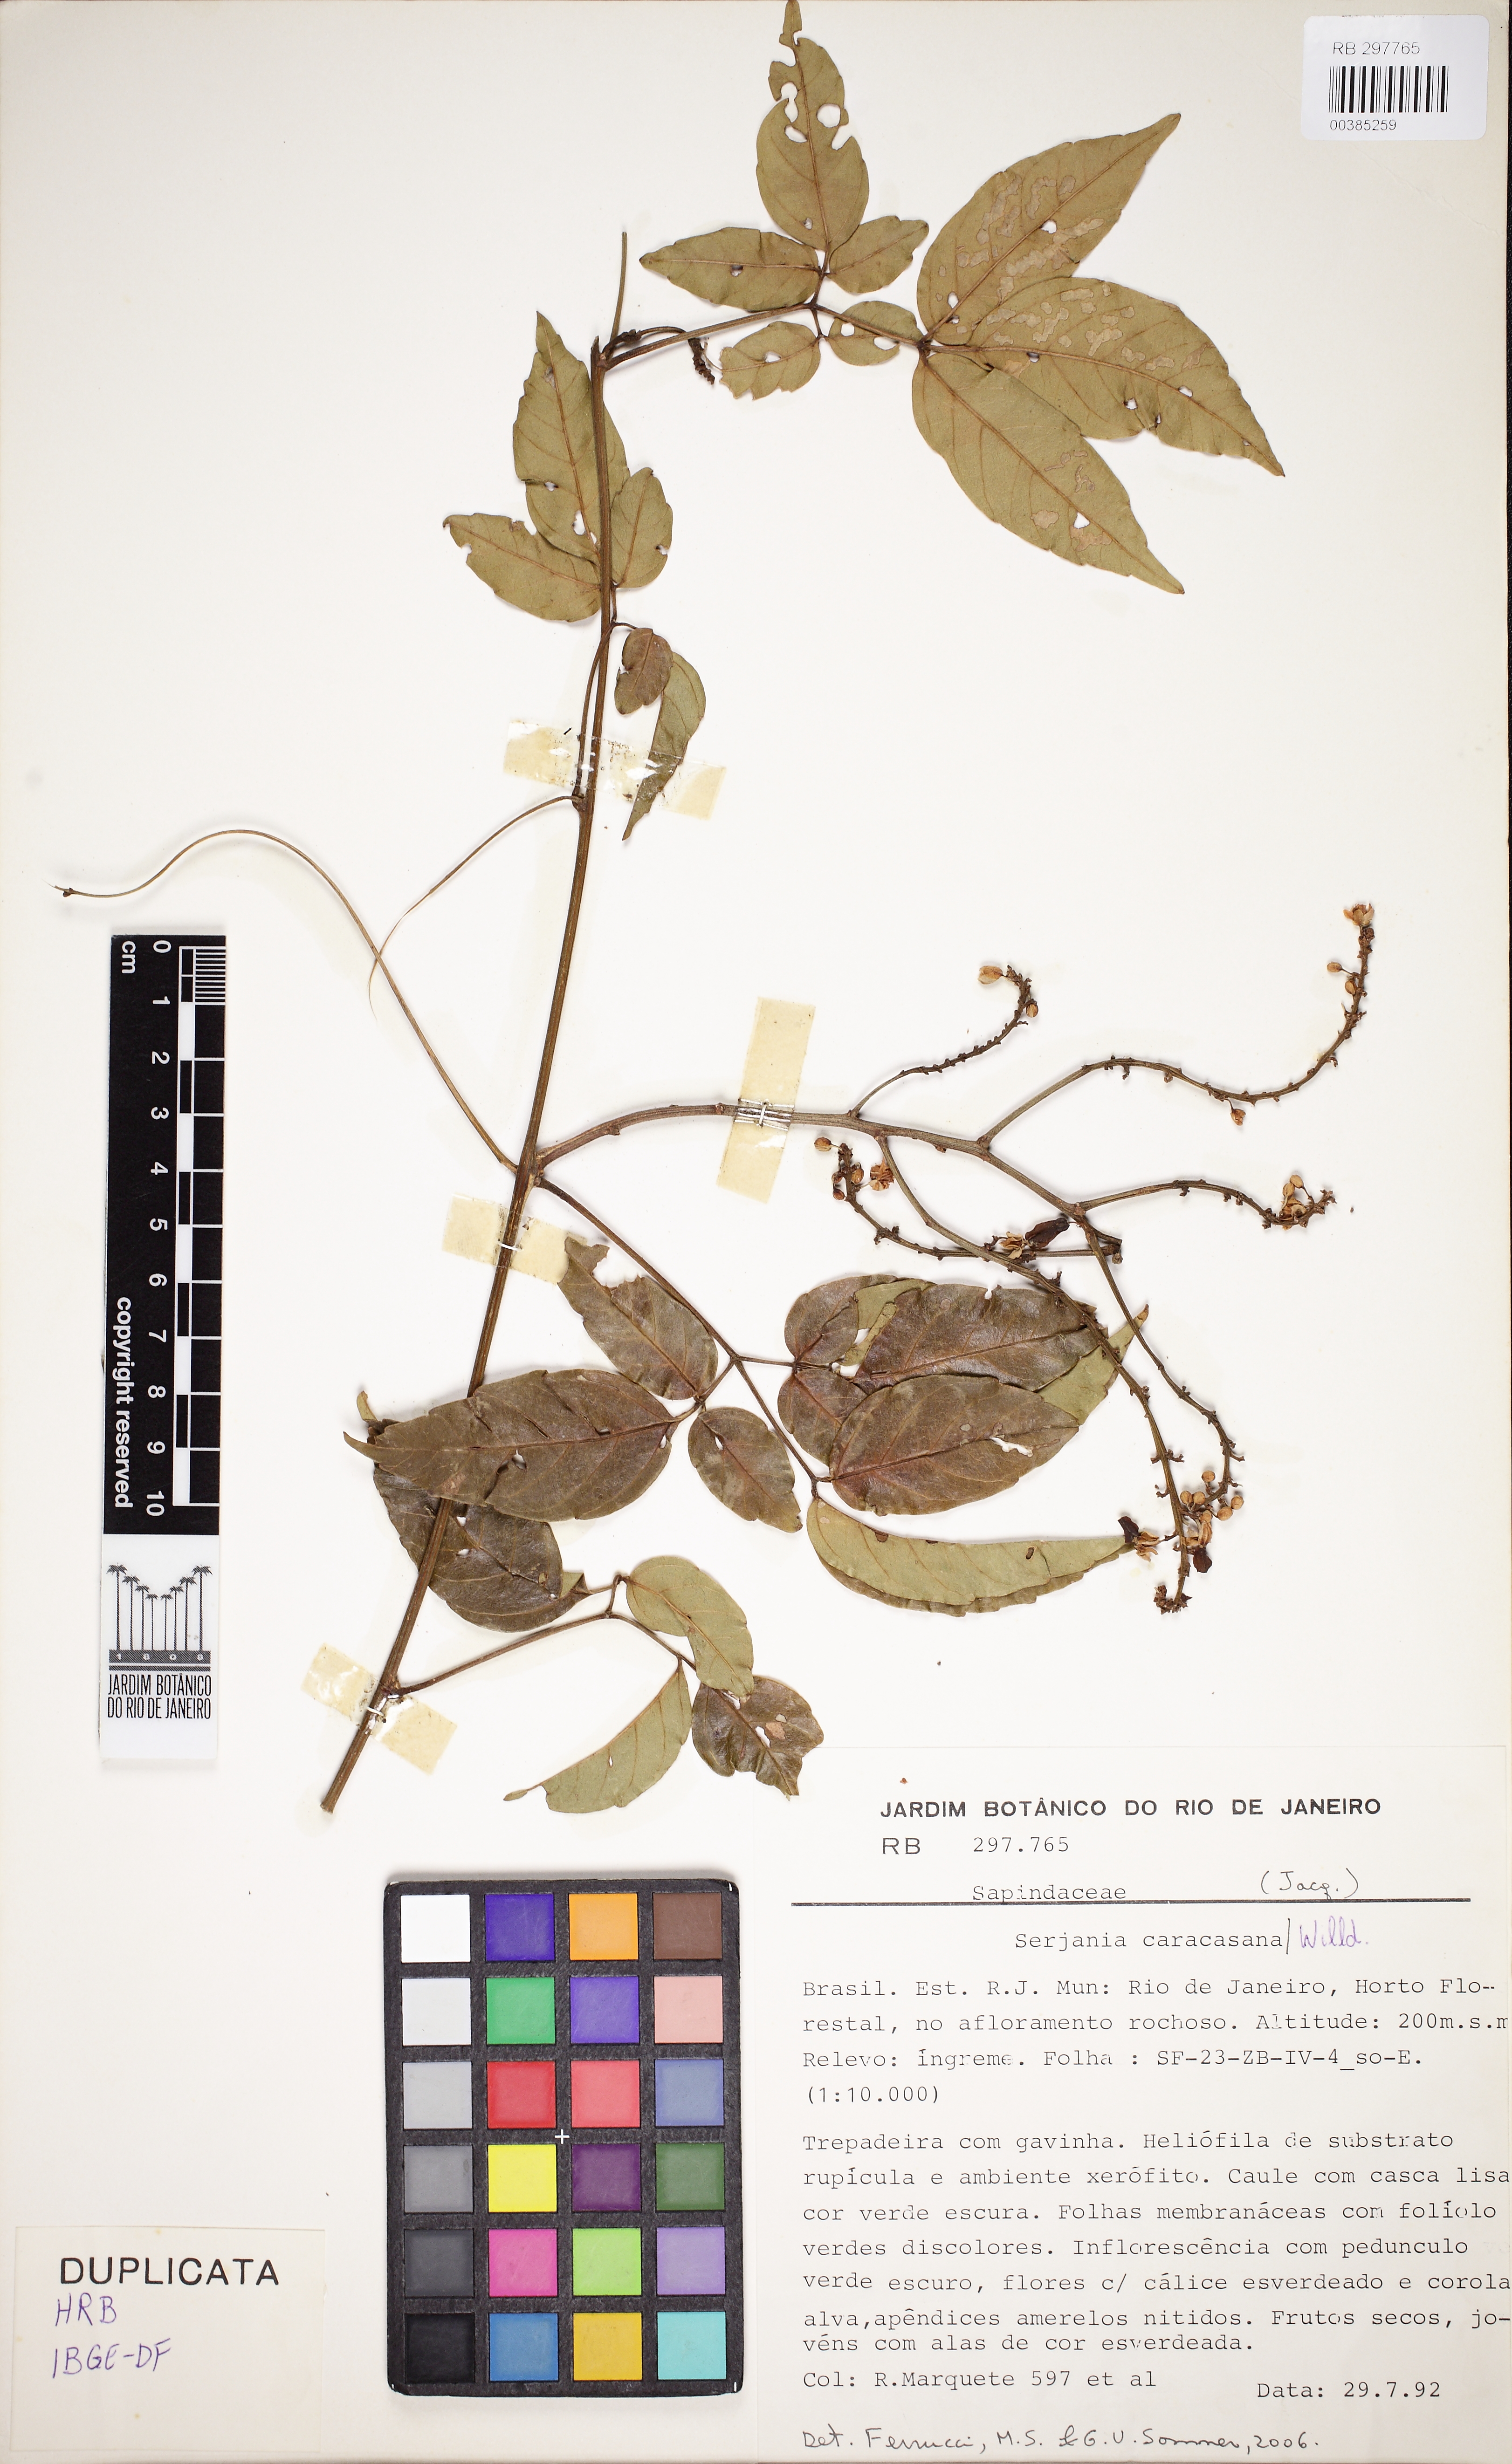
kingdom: Plantae
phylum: Tracheophyta
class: Magnoliopsida
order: Sapindales
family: Sapindaceae
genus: Serjania
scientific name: Serjania caracasana
